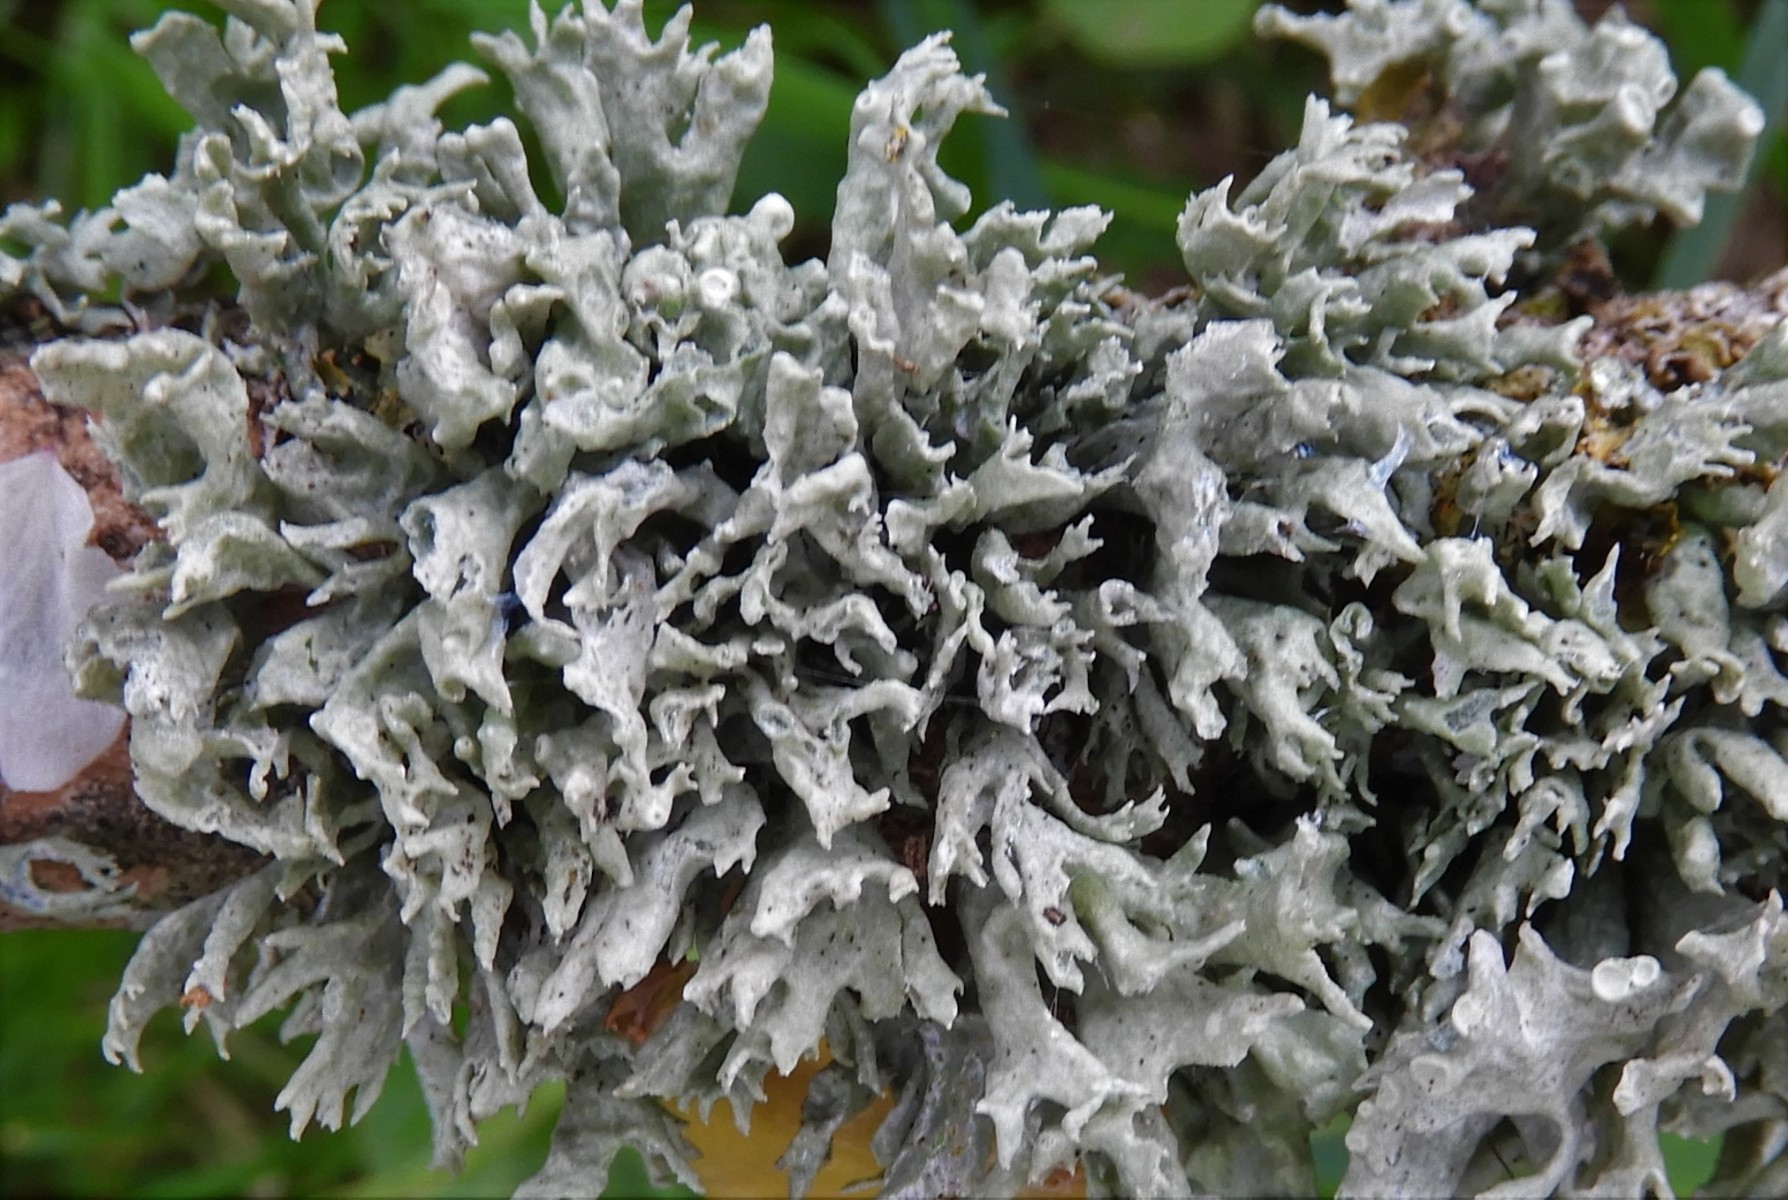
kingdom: Fungi
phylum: Ascomycota
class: Lecanoromycetes
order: Lecanorales
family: Ramalinaceae
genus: Ramalina
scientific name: Ramalina fastigiata
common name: tue-grenlav
